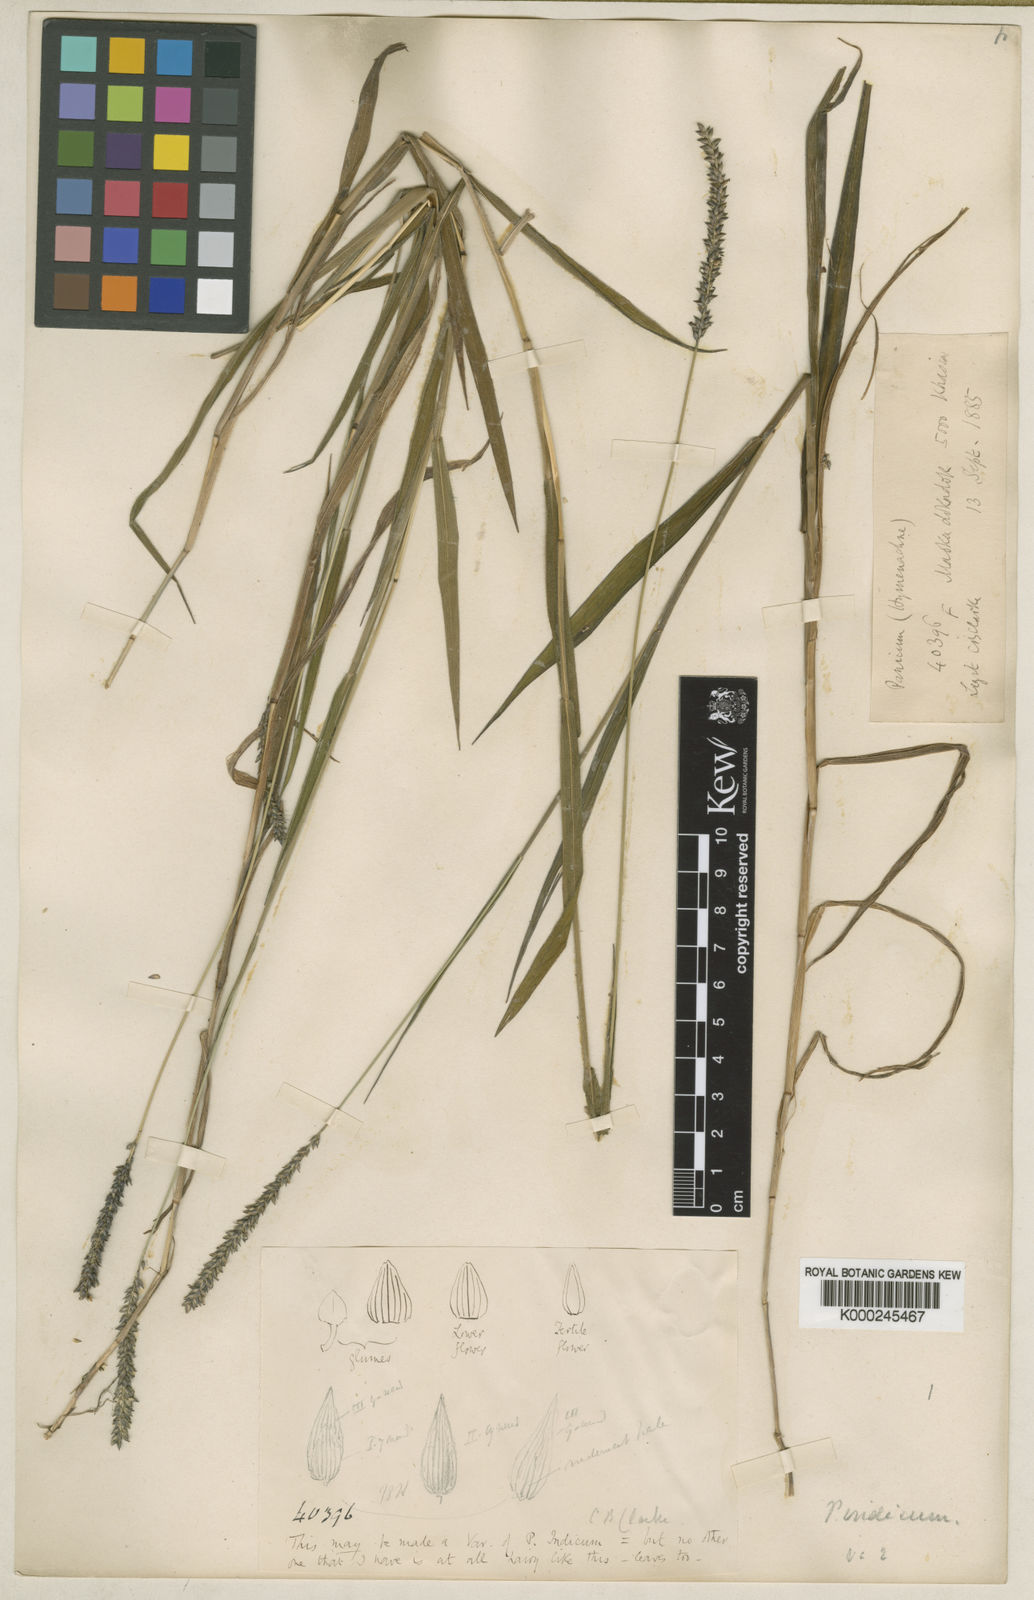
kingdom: Plantae
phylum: Tracheophyta
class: Liliopsida
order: Poales
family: Poaceae
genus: Sacciolepis
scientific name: Sacciolepis indica
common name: Glenwoodgrass
